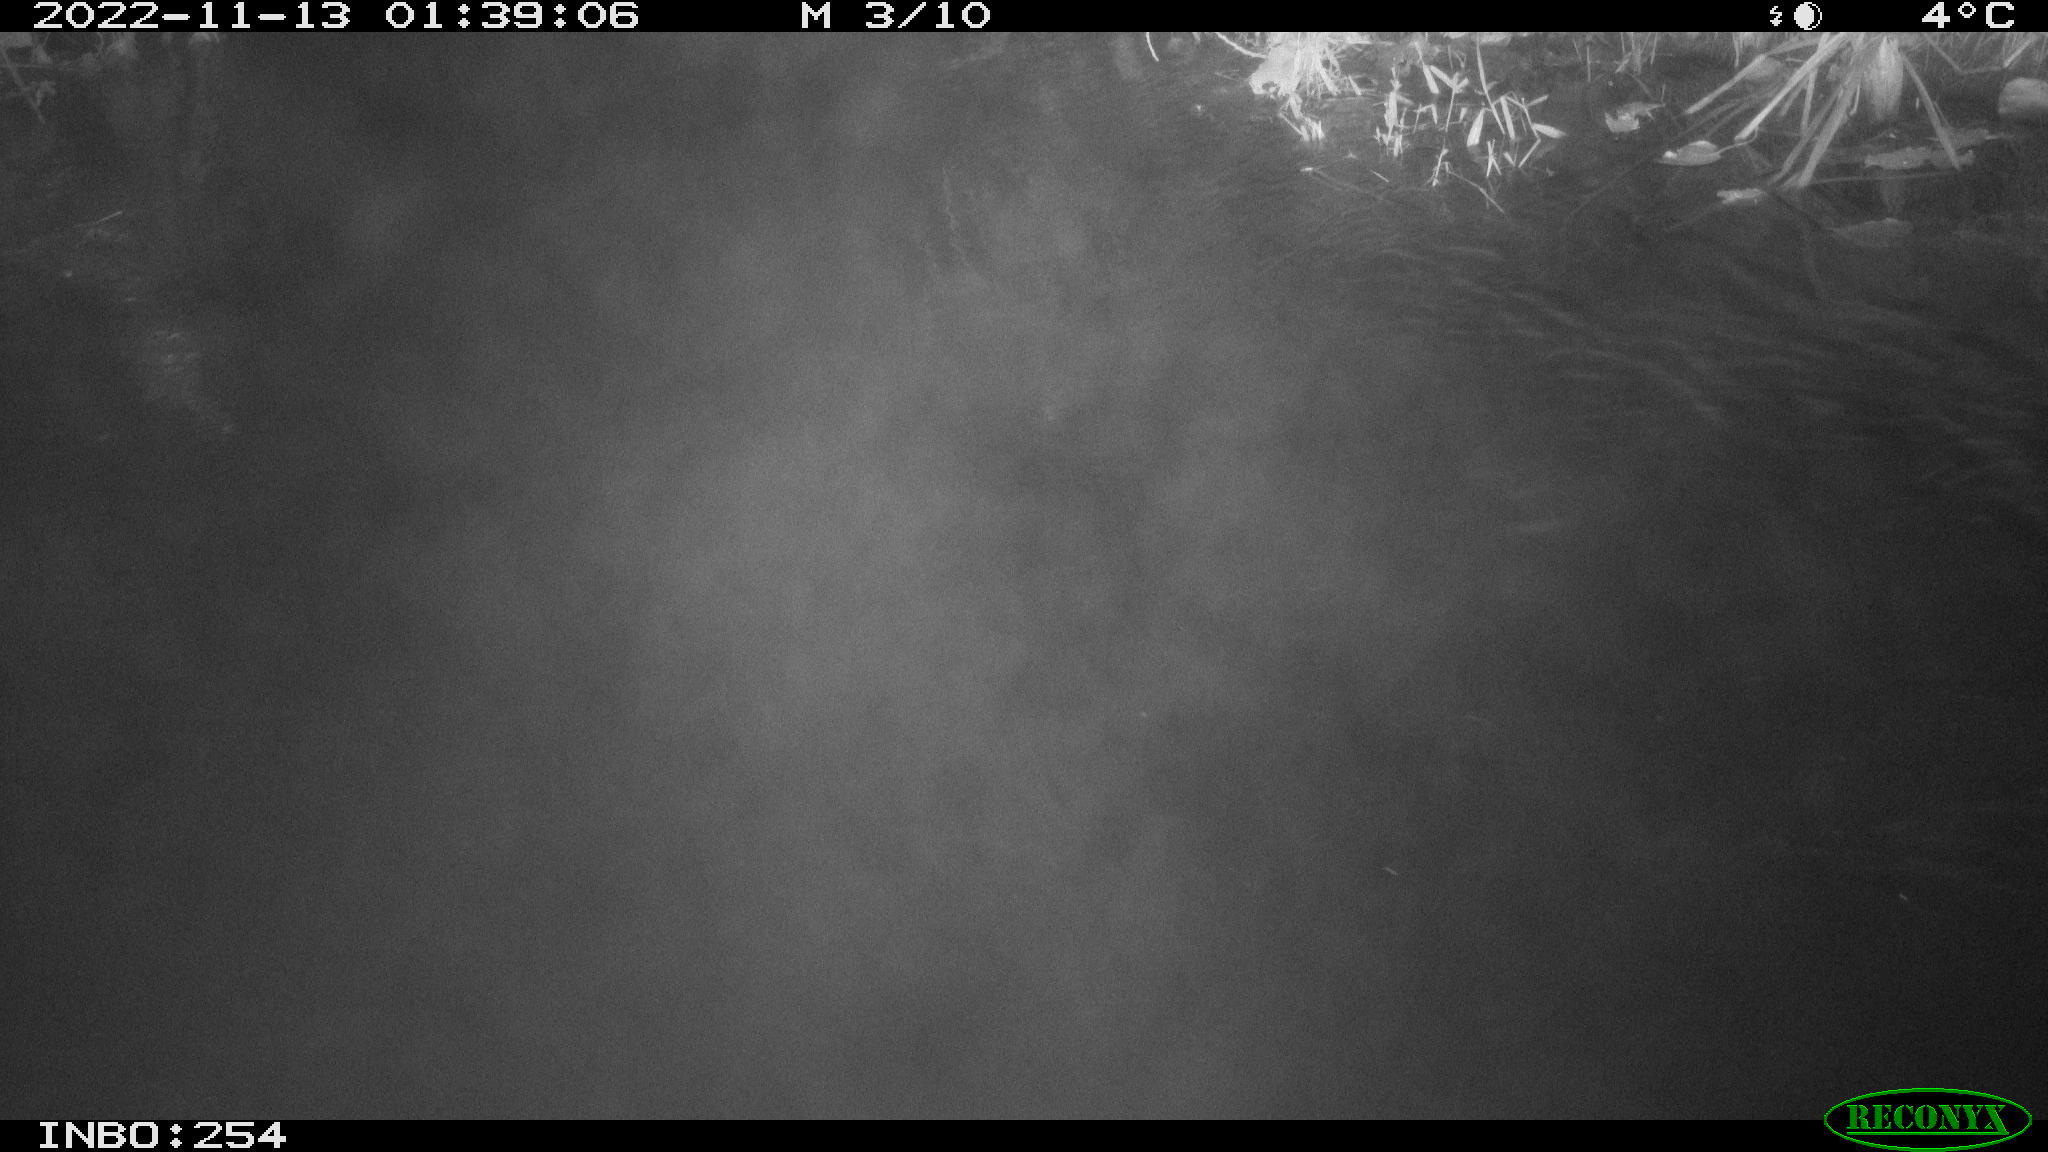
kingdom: Animalia
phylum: Chordata
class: Aves
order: Anseriformes
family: Anatidae
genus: Anas
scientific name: Anas
